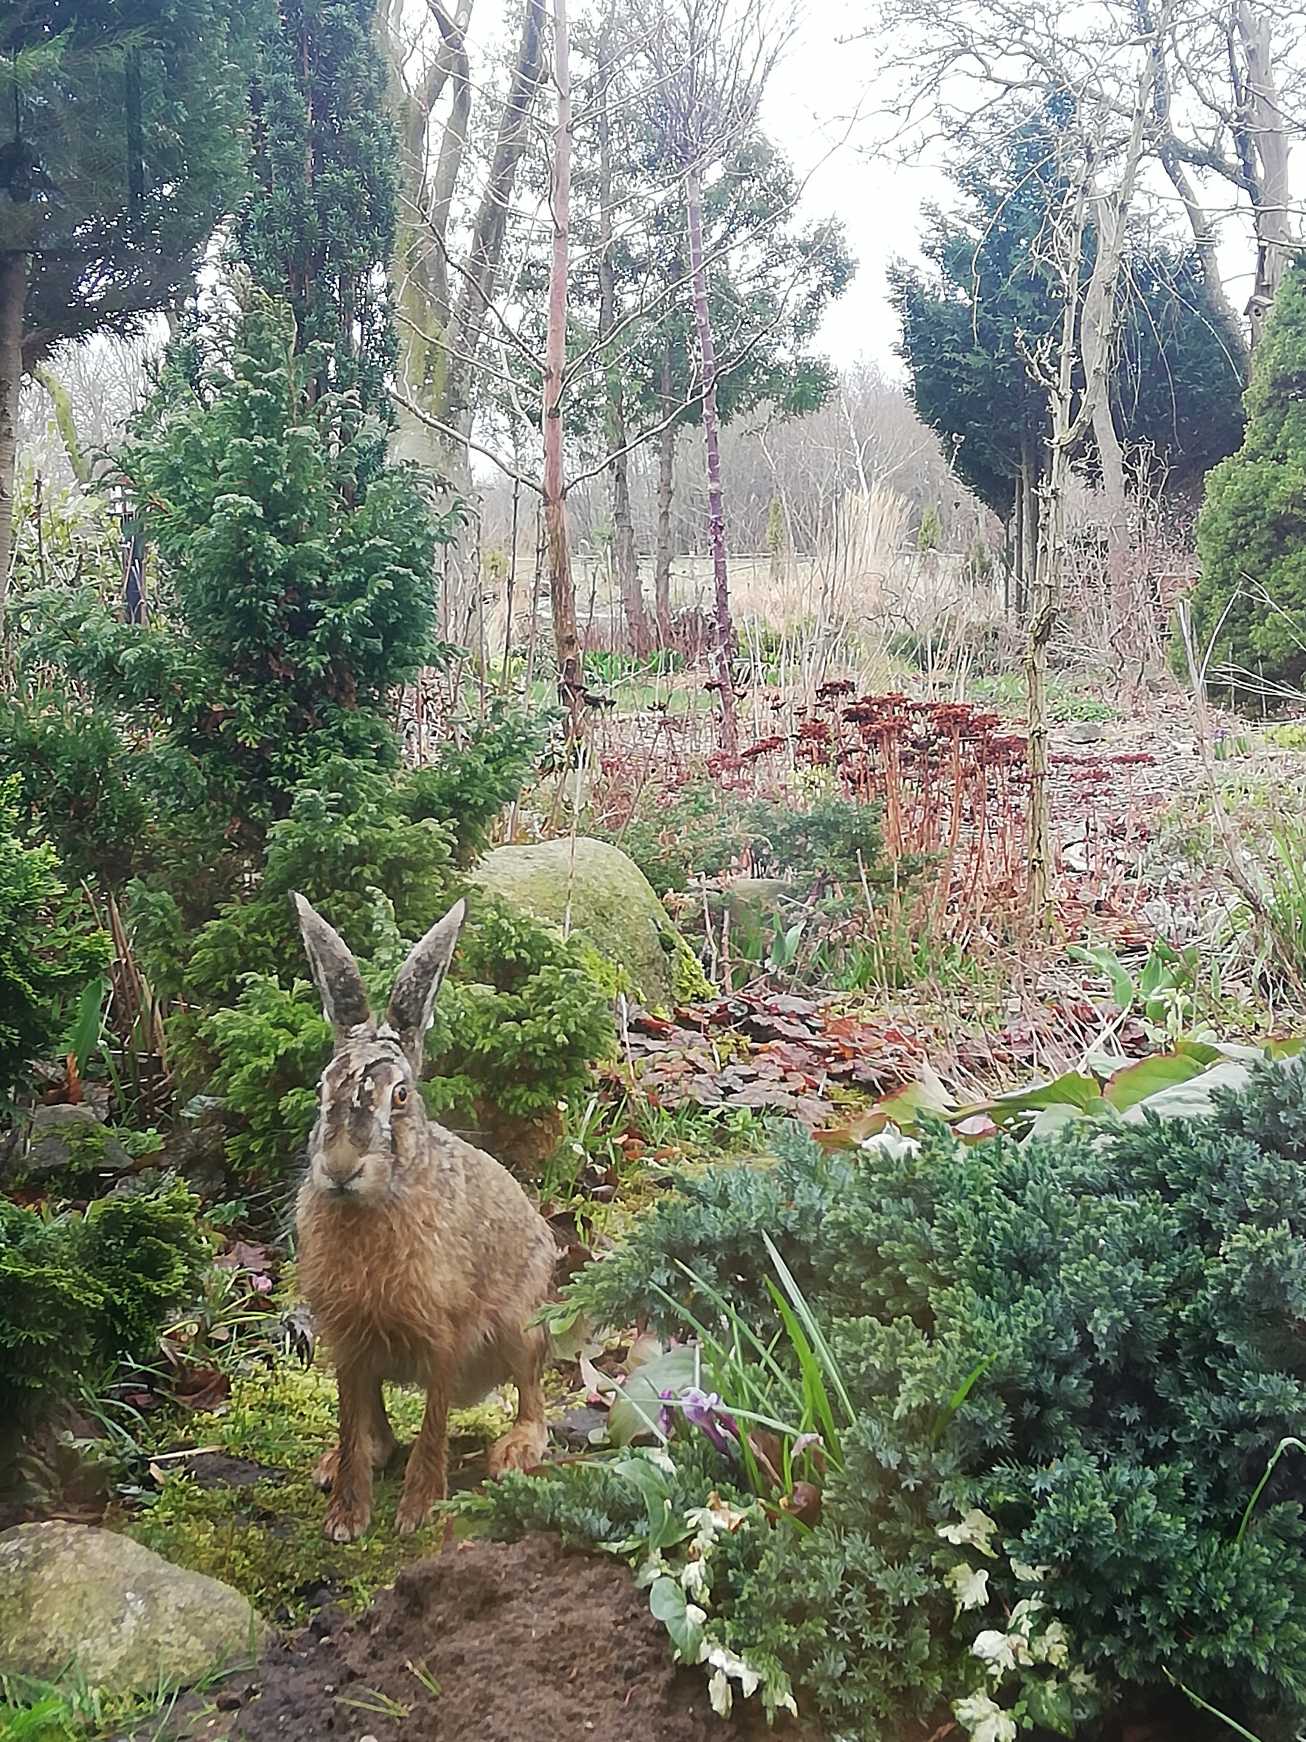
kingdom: Animalia
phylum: Chordata
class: Mammalia
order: Lagomorpha
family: Leporidae
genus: Lepus
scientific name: Lepus europaeus
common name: Hare
